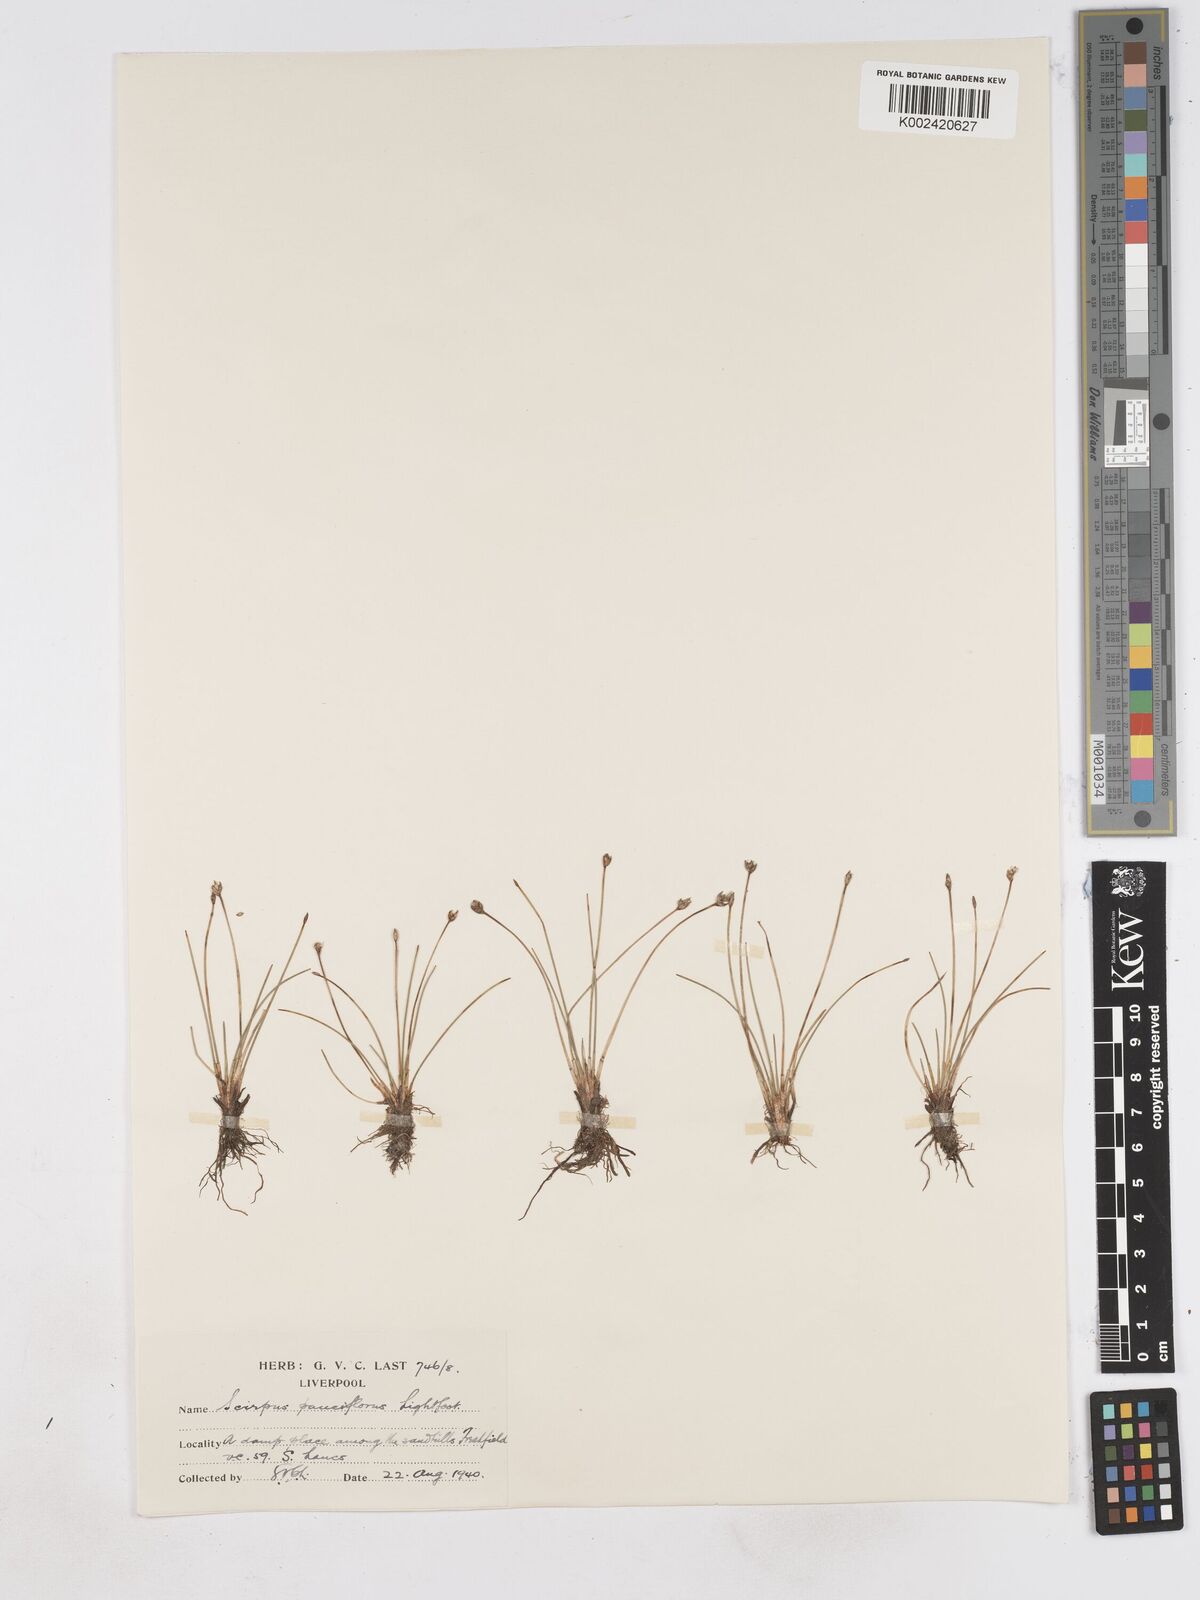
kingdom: Plantae
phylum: Tracheophyta
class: Liliopsida
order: Poales
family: Cyperaceae
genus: Eleocharis
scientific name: Eleocharis quinqueflora
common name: Few-flowered spike-rush
